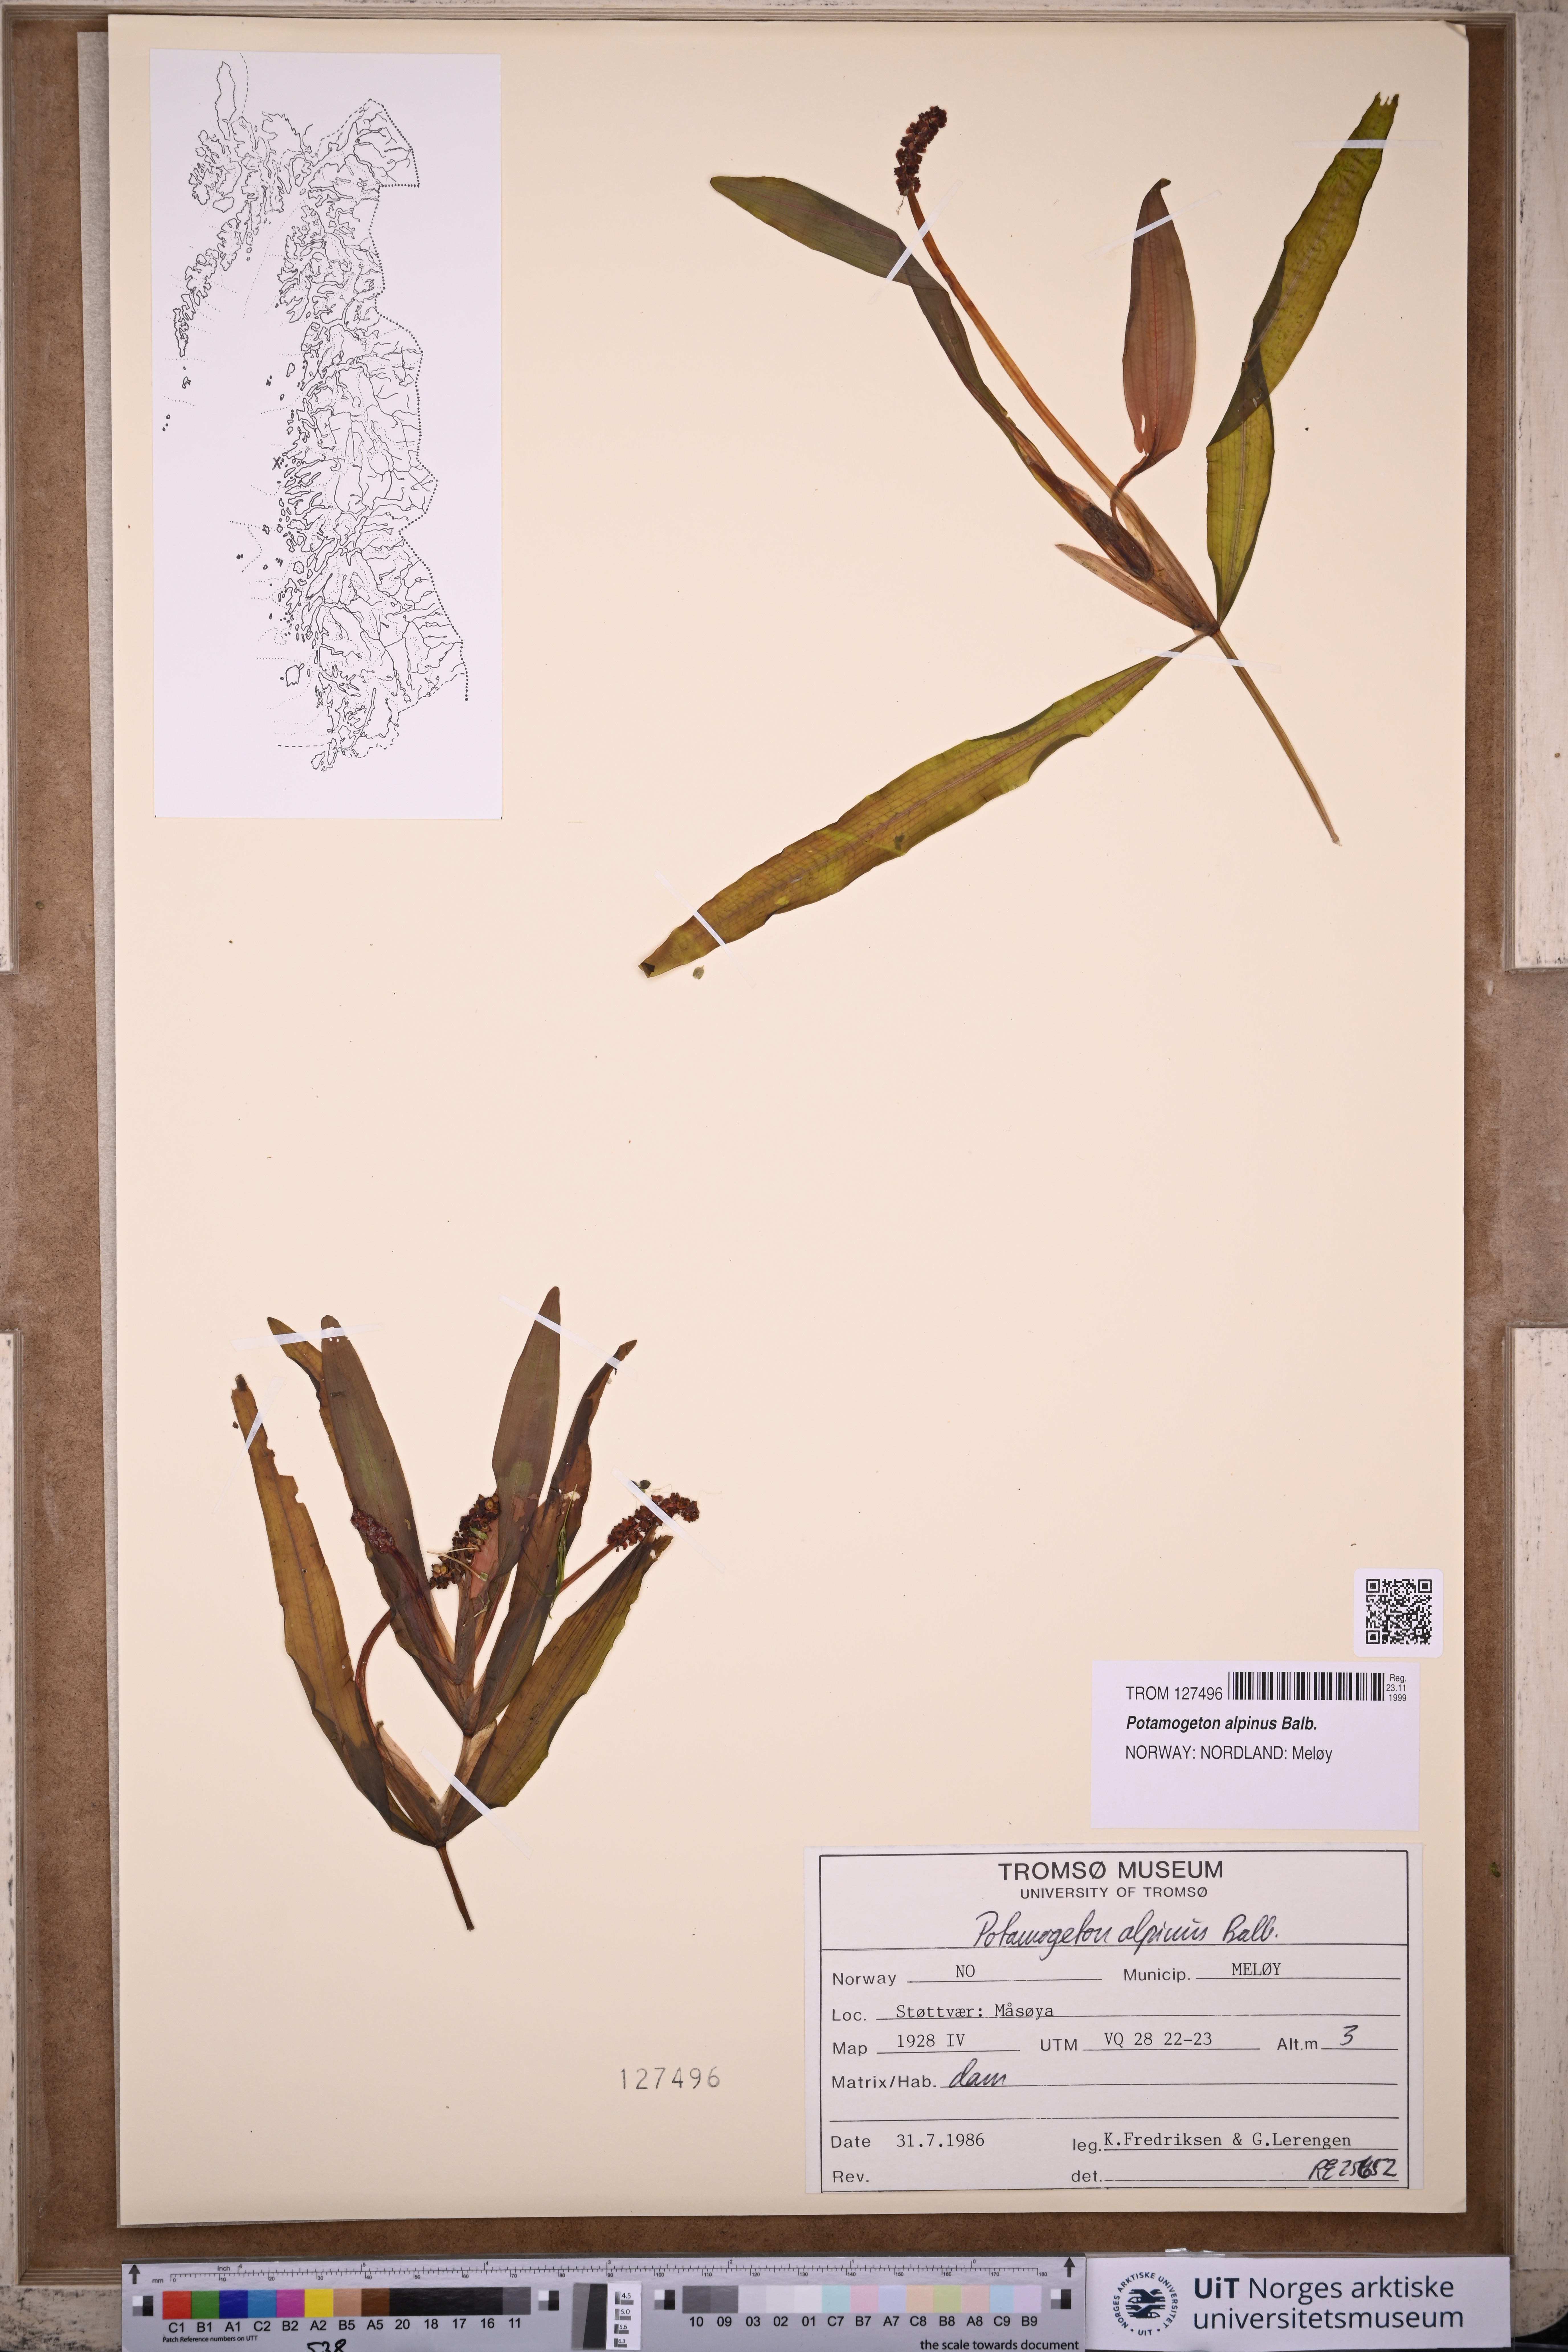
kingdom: Plantae
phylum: Tracheophyta
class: Liliopsida
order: Alismatales
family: Potamogetonaceae
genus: Potamogeton
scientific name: Potamogeton alpinus
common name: Red pondweed
